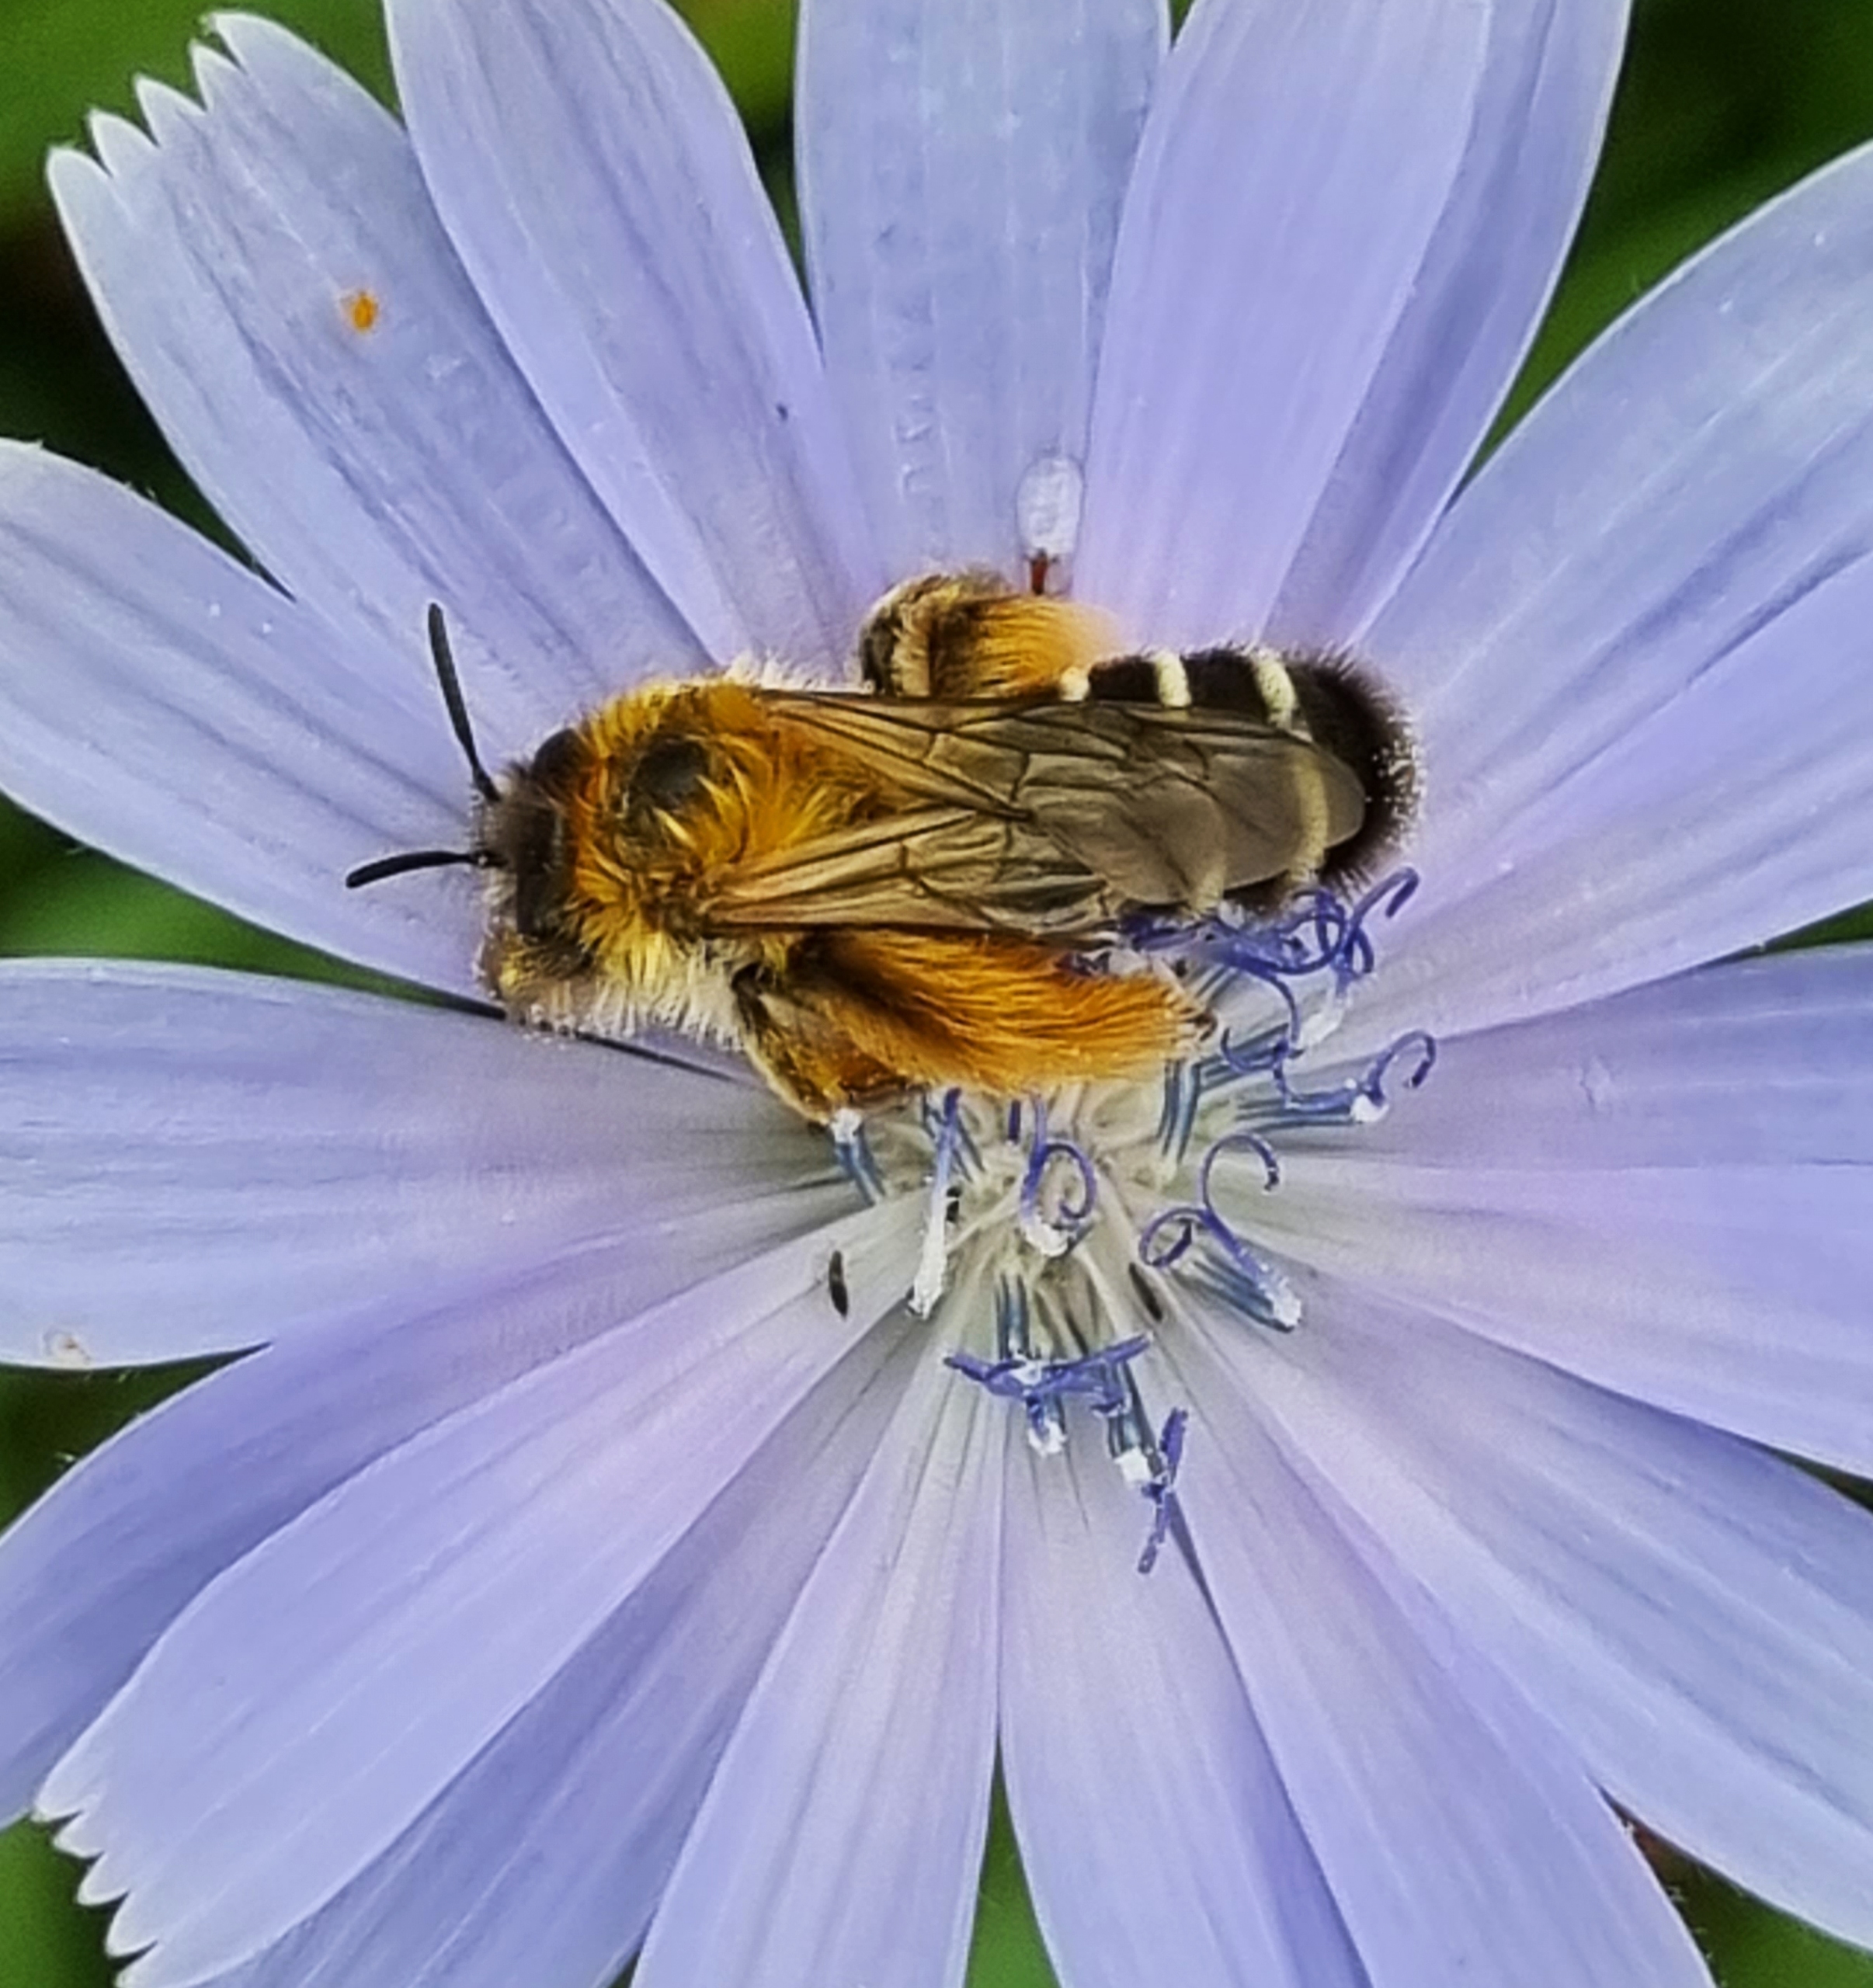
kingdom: Animalia
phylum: Arthropoda
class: Insecta
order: Hymenoptera
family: Melittidae
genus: Dasypoda
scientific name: Dasypoda hirtipes
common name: Pragtbuksebi
